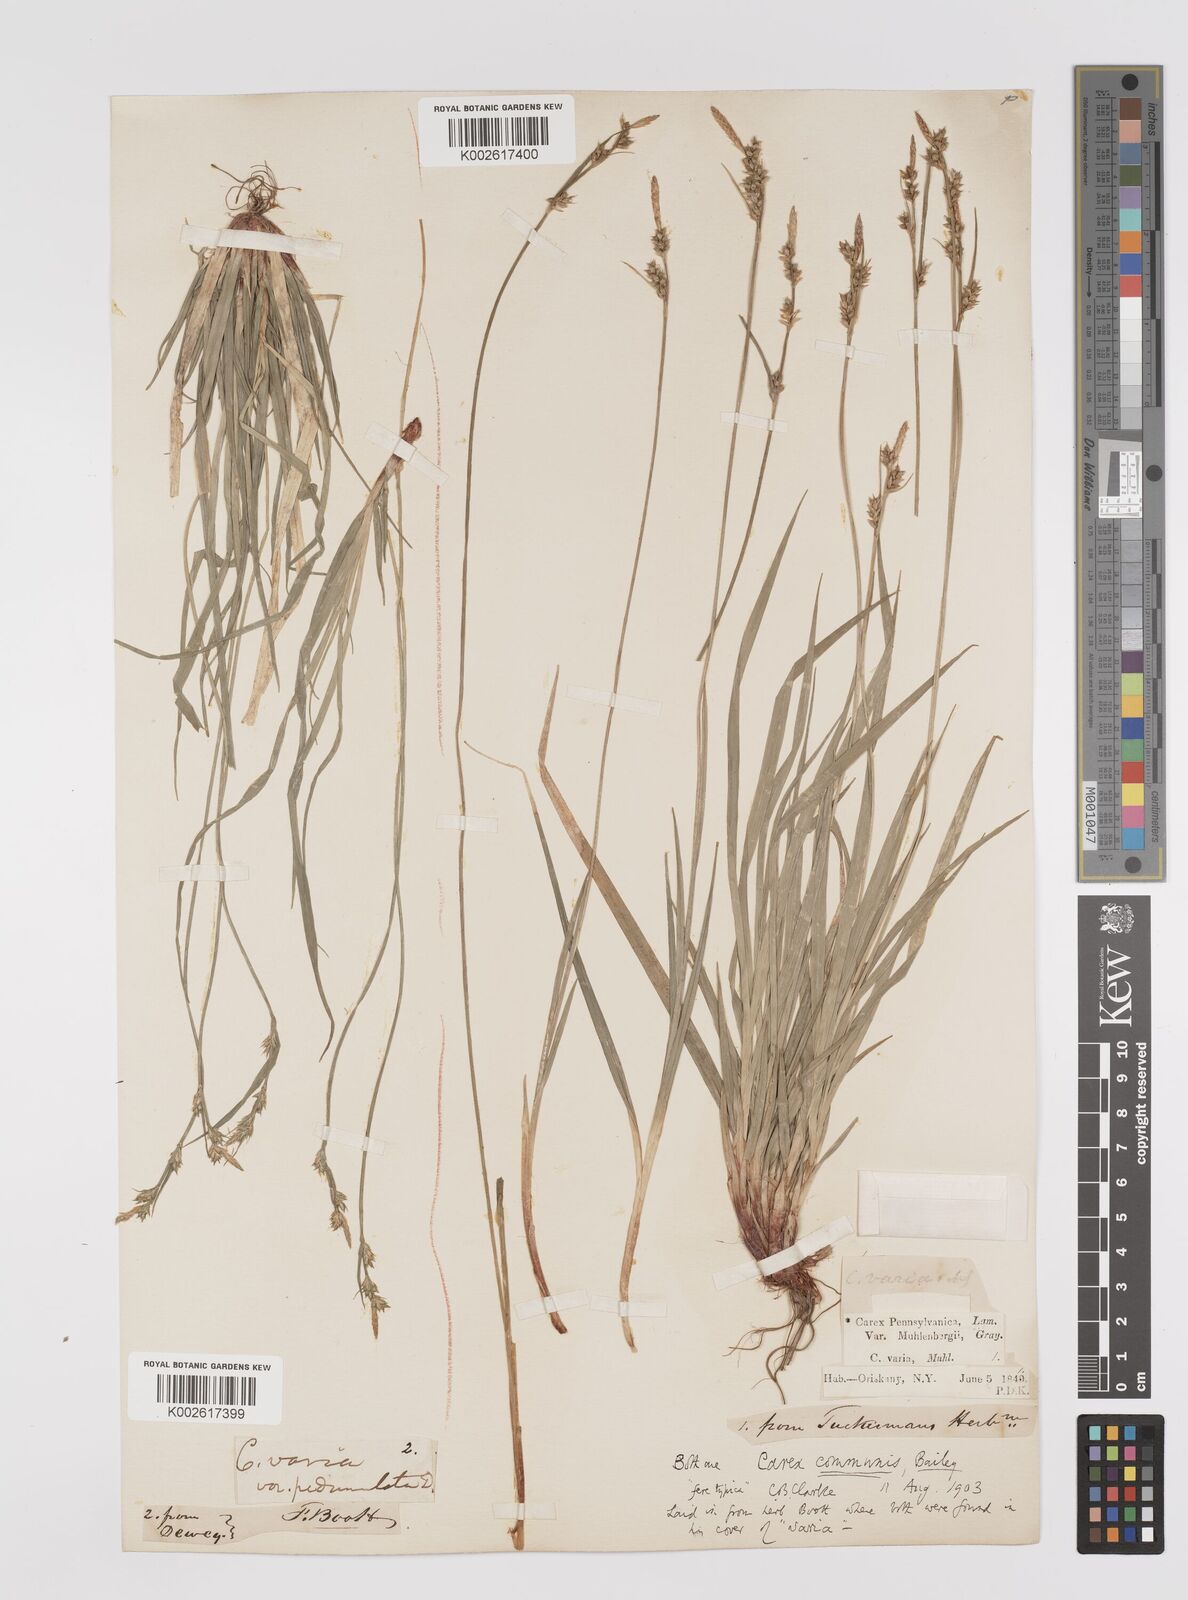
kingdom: Plantae
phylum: Tracheophyta
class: Liliopsida
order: Poales
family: Cyperaceae
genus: Carex
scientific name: Carex communis
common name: Colonial oak sedge
